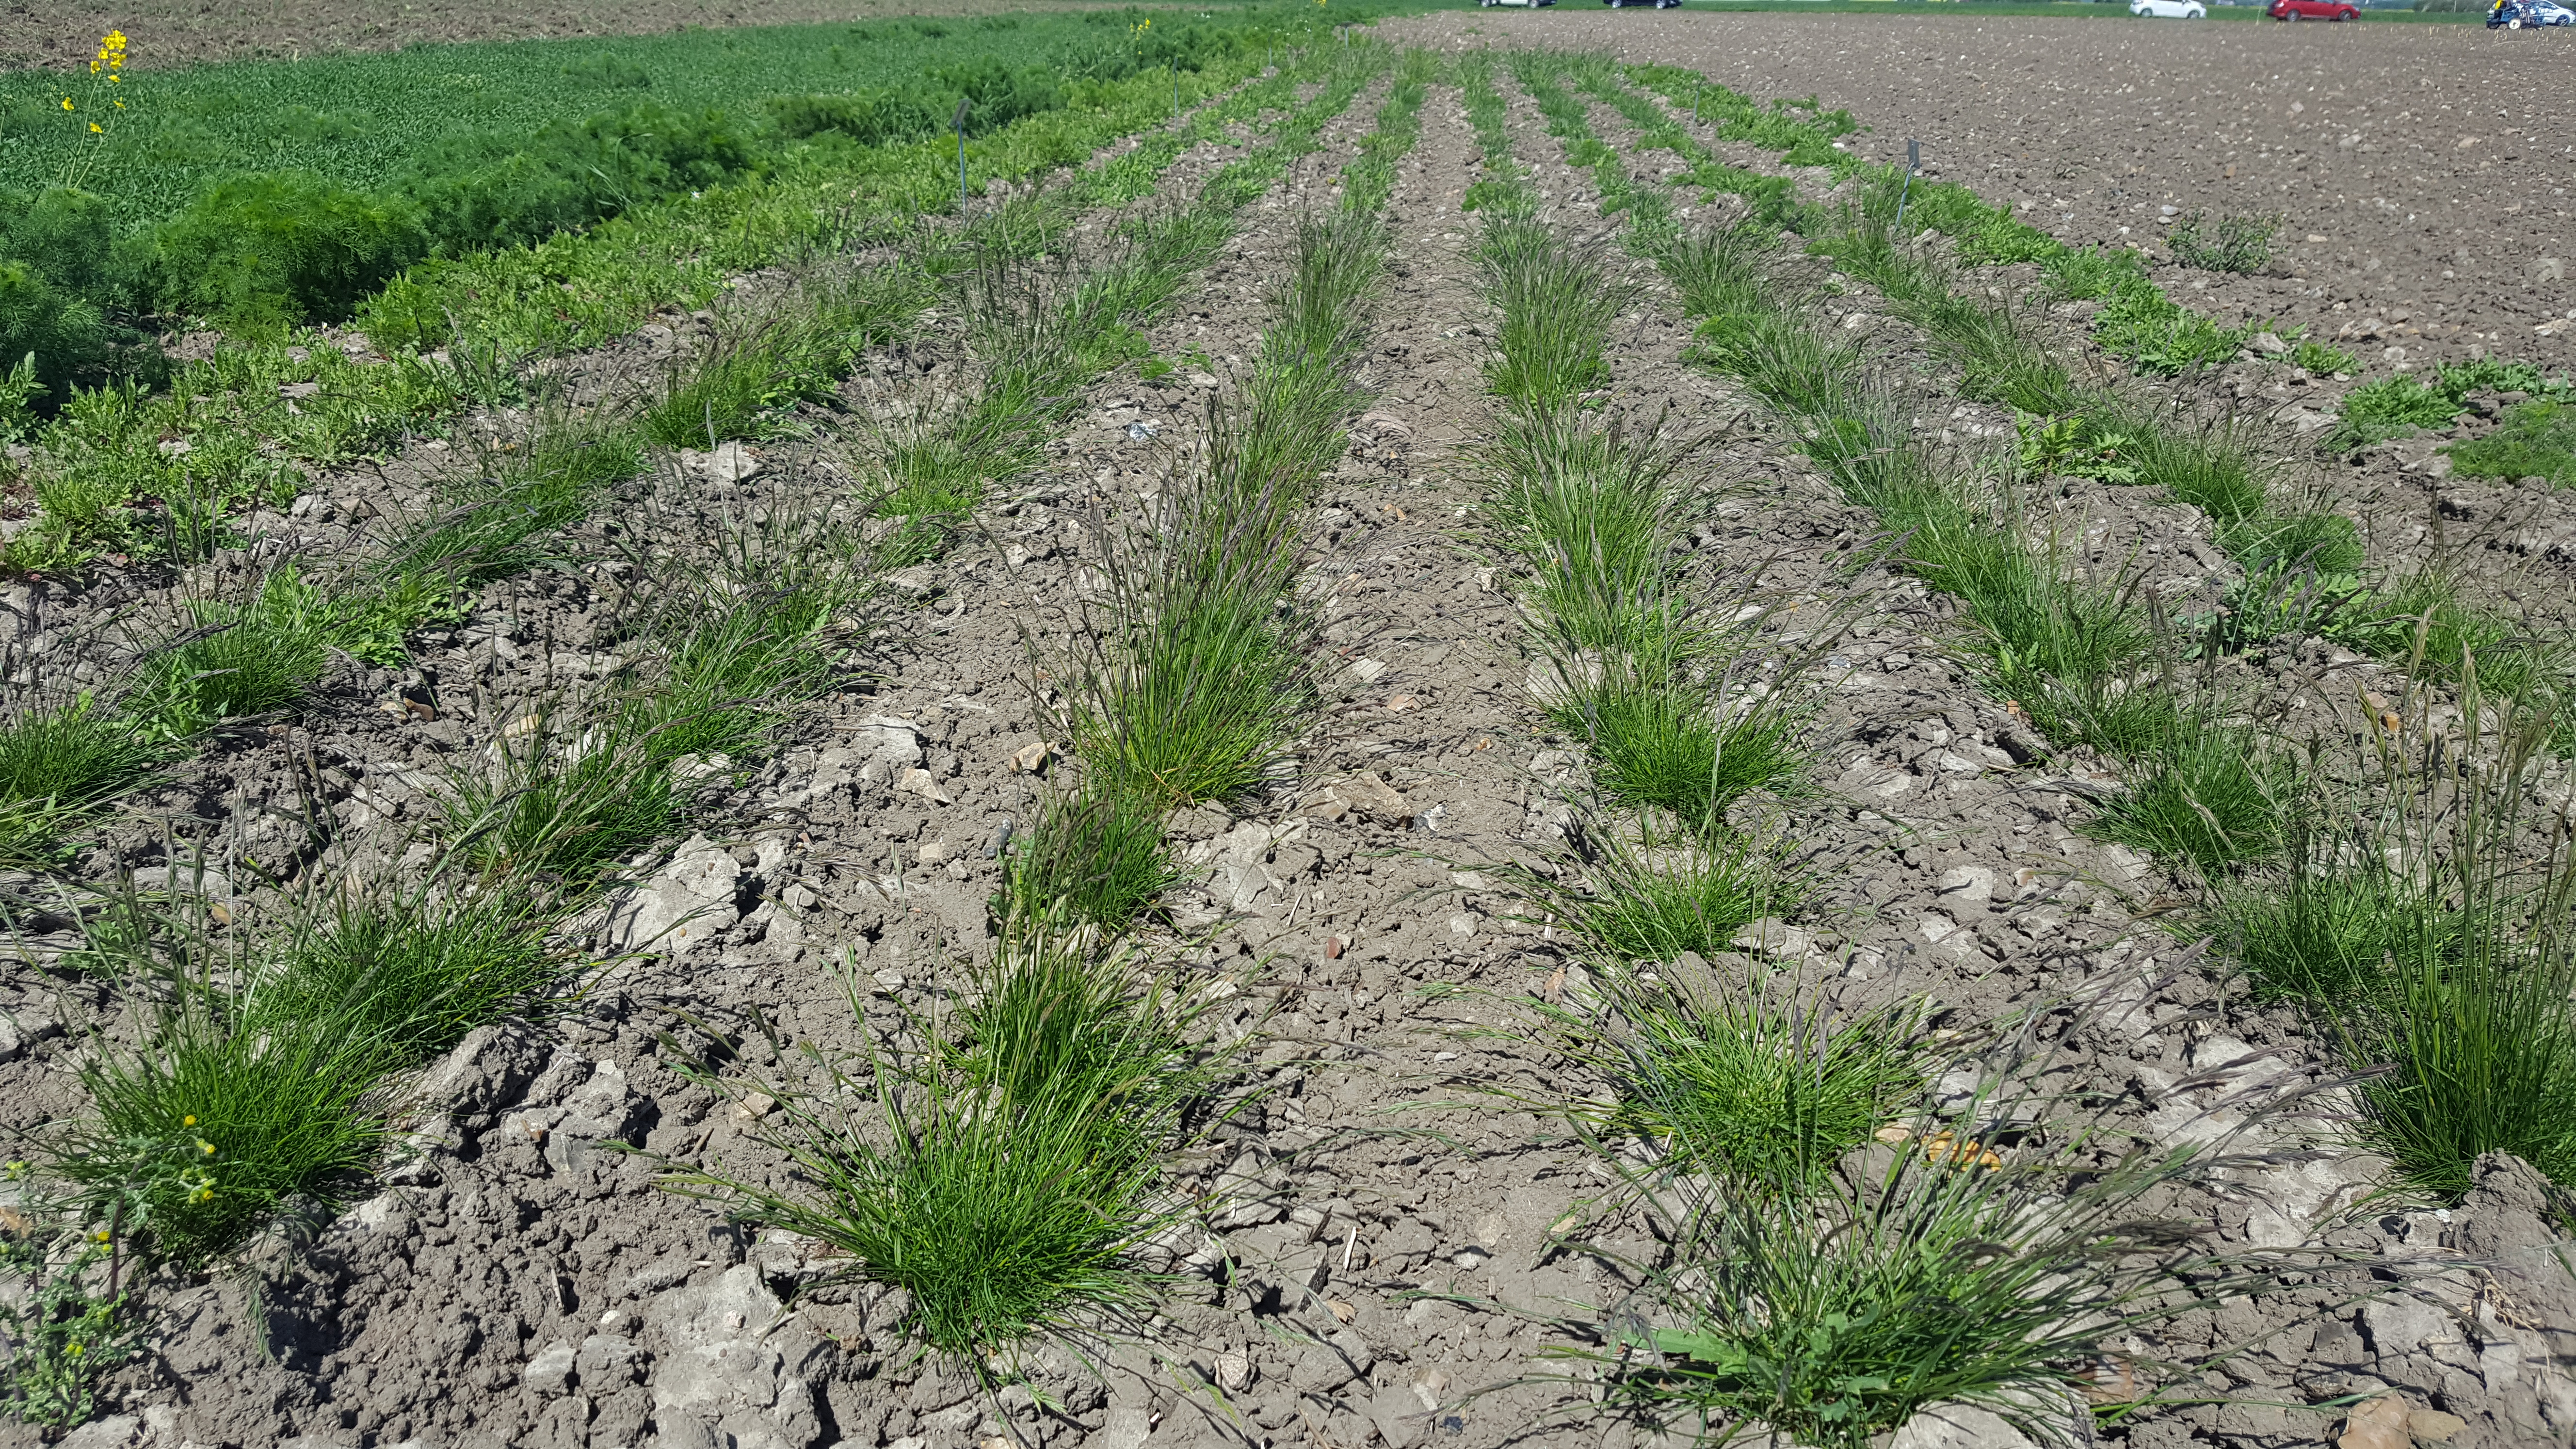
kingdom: Plantae
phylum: Tracheophyta
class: Liliopsida
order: Poales
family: Poaceae
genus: Festuca
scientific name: Festuca rubra
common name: Red fescue
